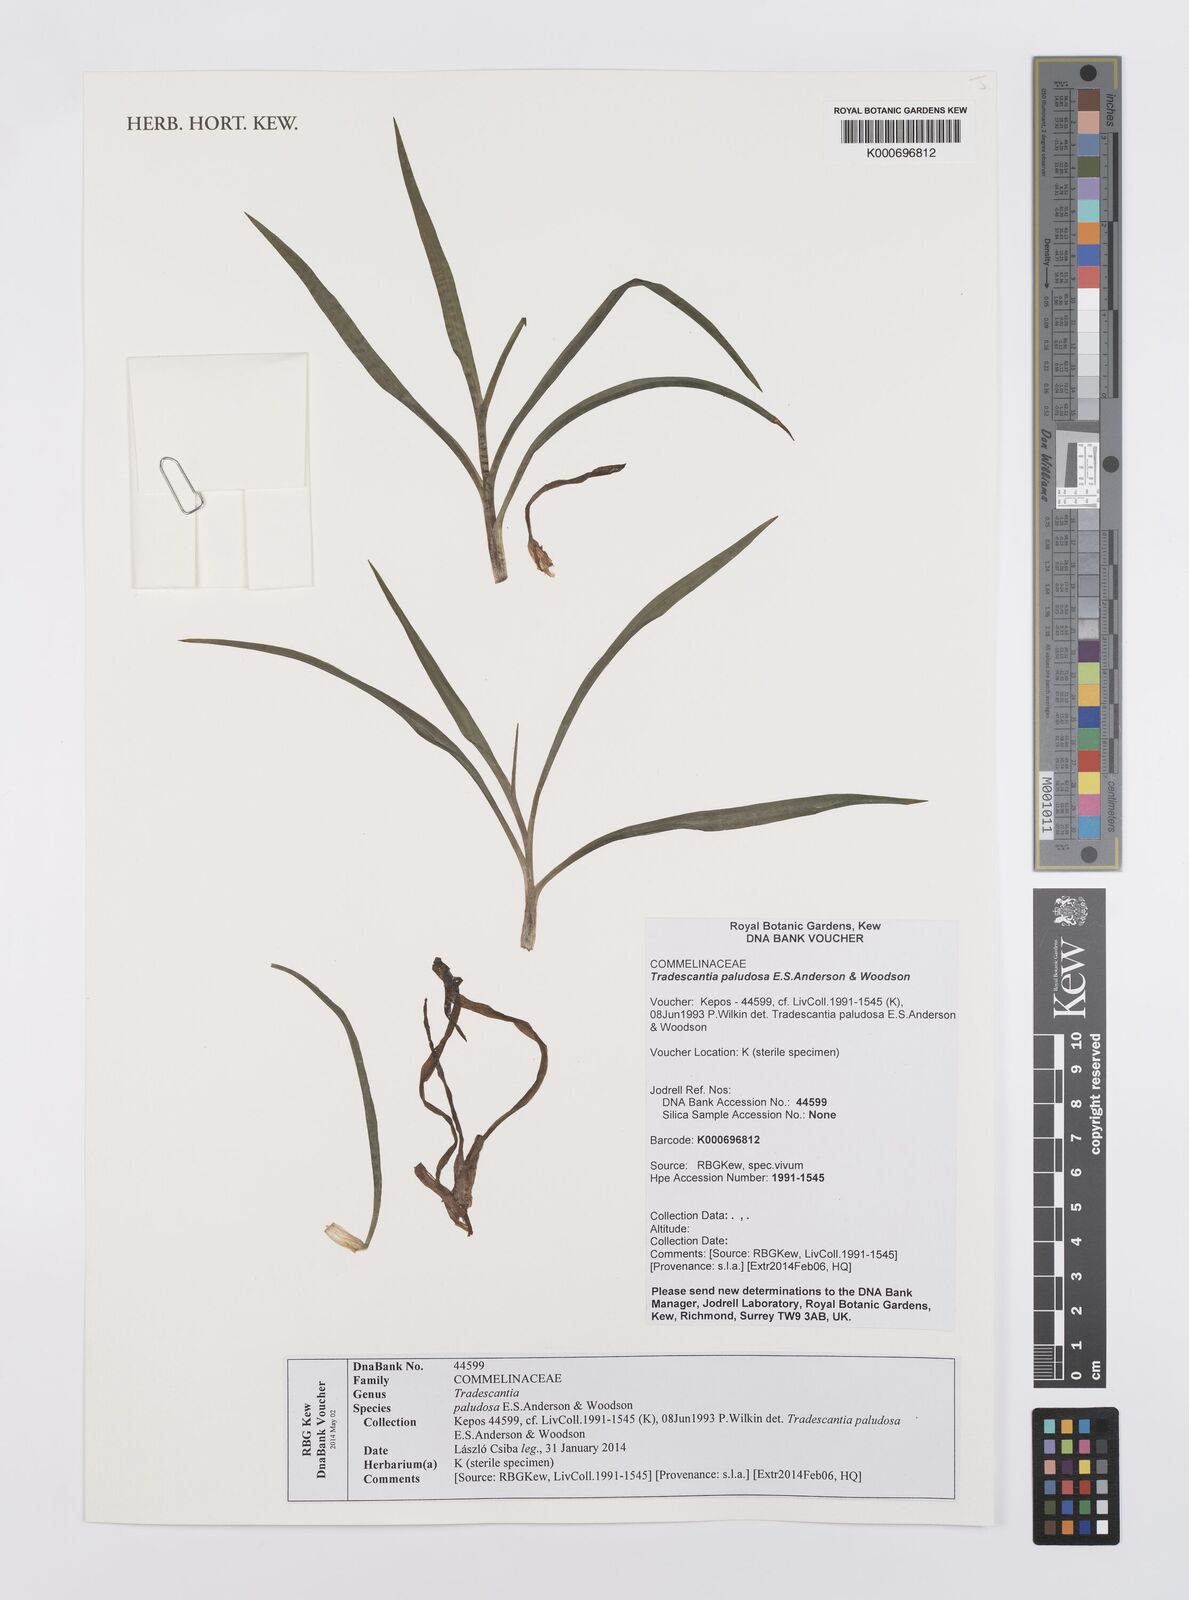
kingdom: Plantae
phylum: Tracheophyta
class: Liliopsida
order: Commelinales
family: Commelinaceae
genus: Tradescantia
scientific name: Tradescantia ohiensis
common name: Ohio spiderwort
